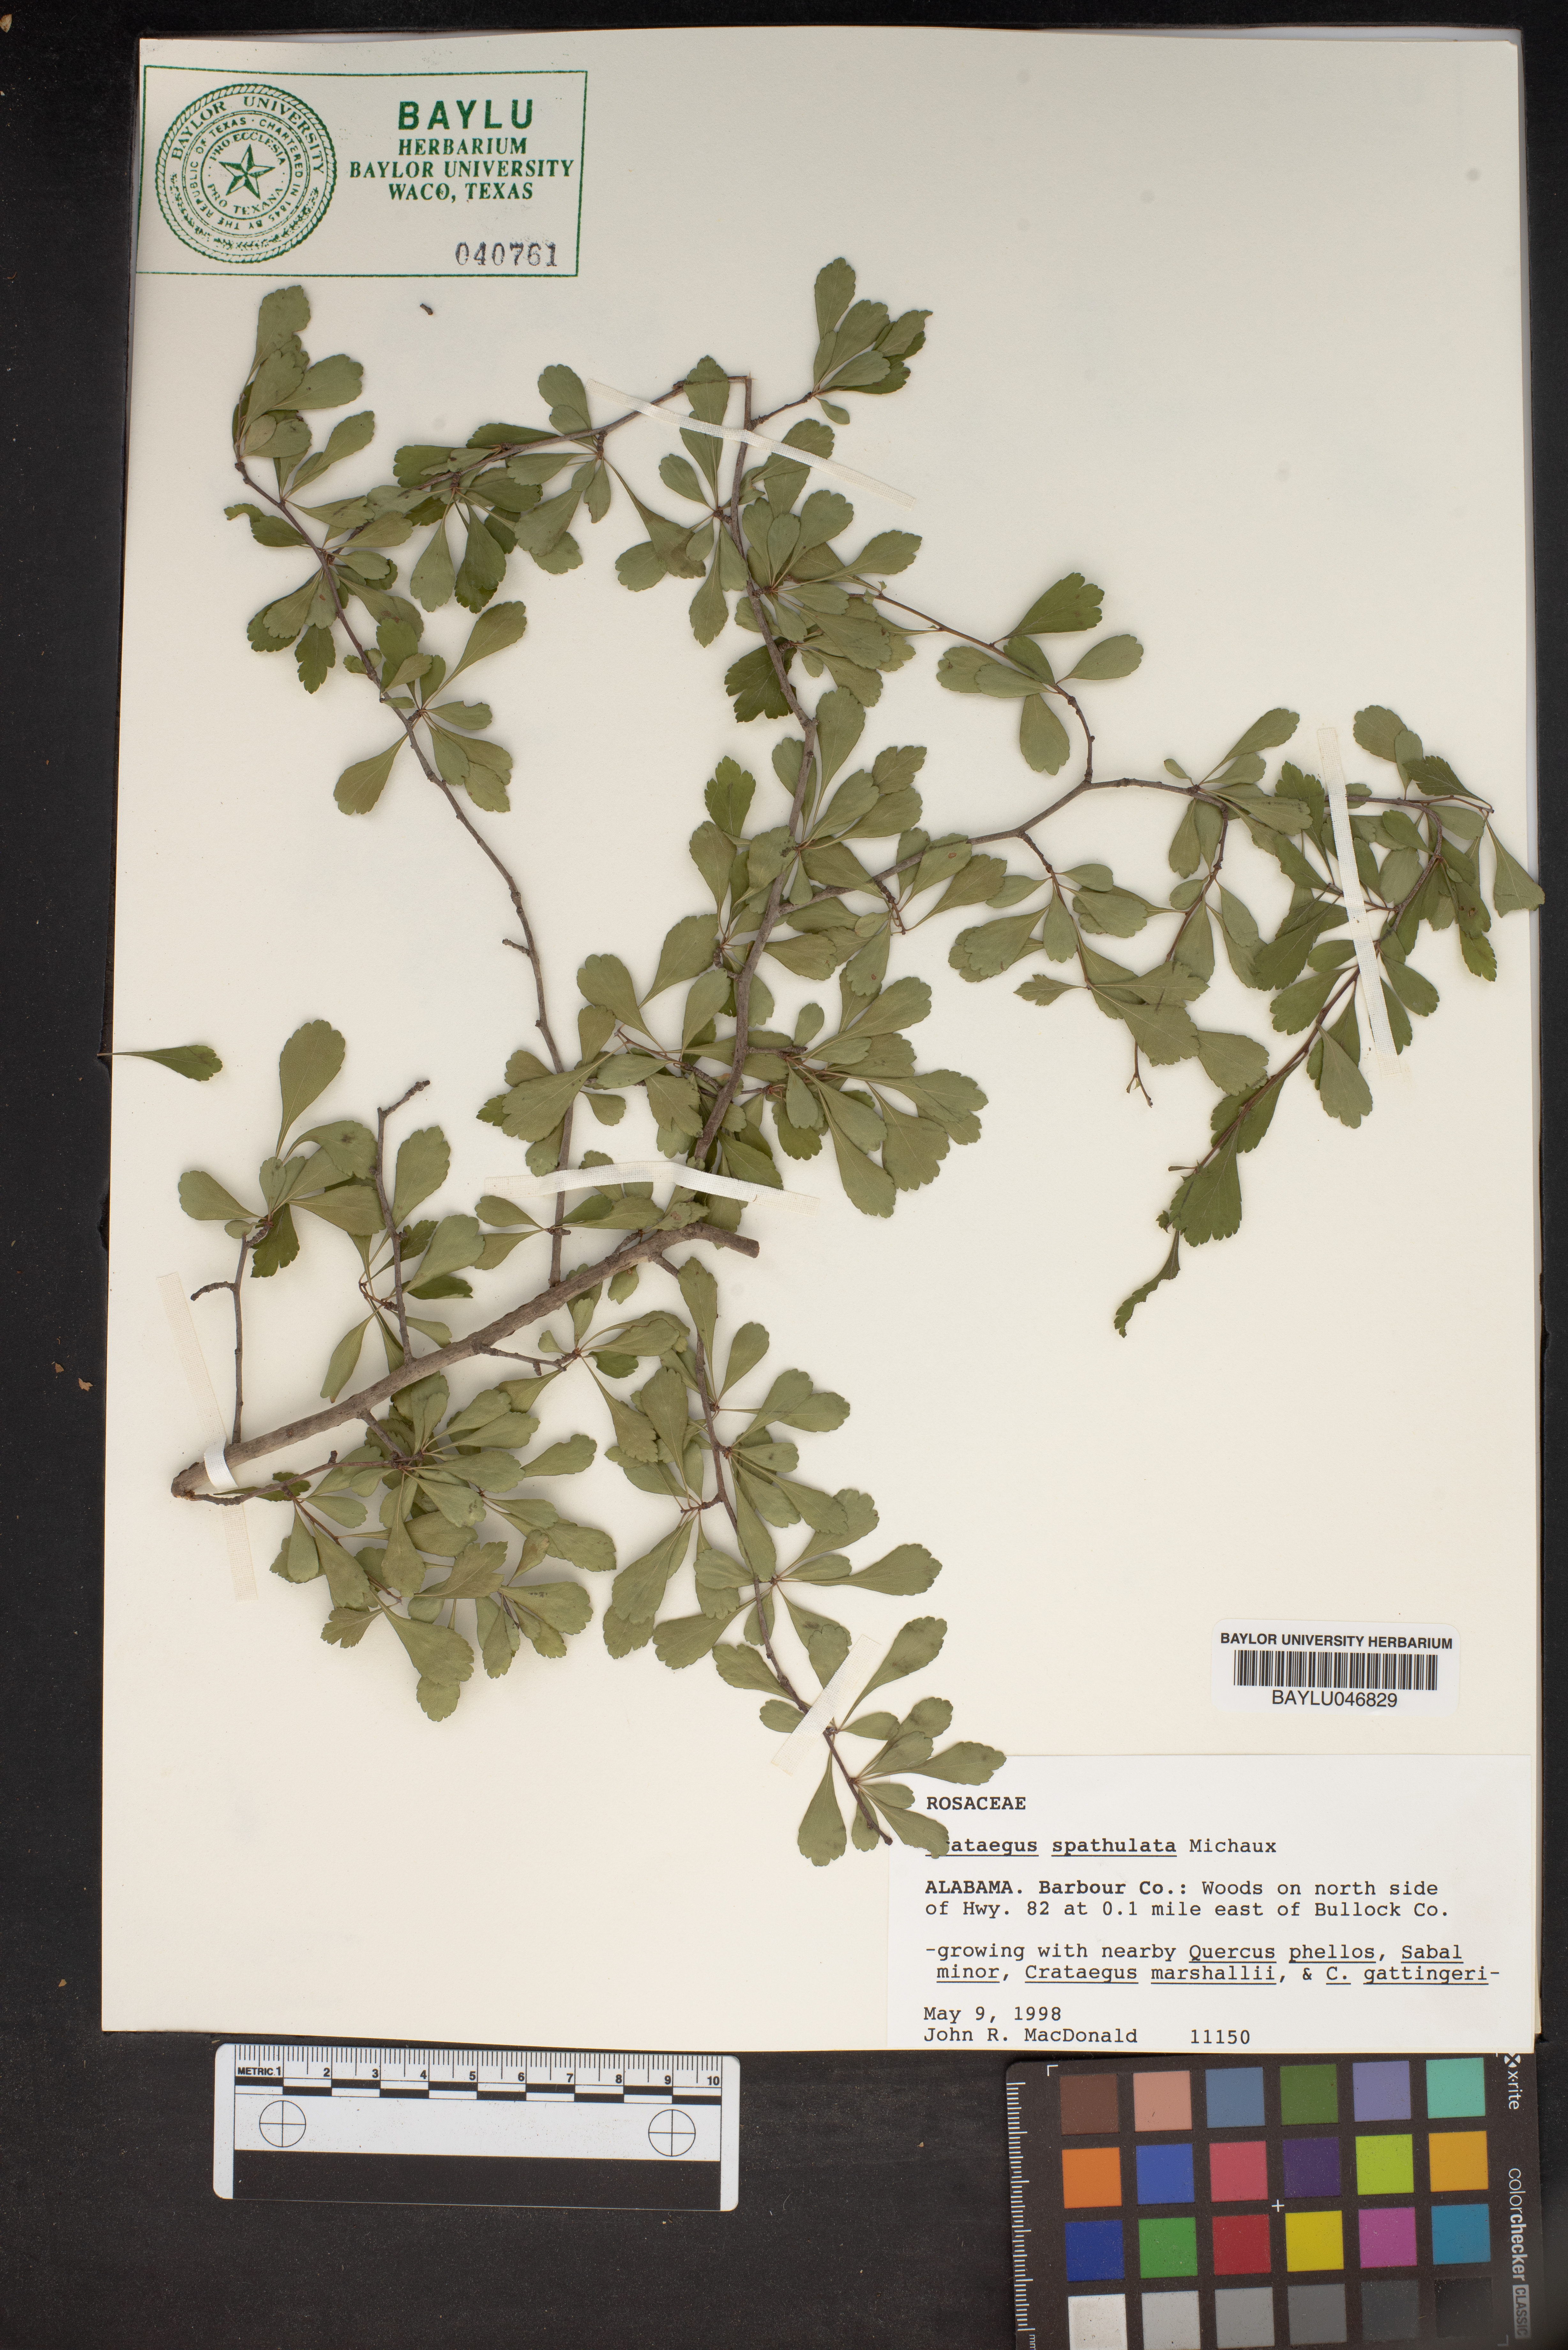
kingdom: Plantae
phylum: Tracheophyta
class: Magnoliopsida
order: Rosales
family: Rosaceae
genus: Crataegus
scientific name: Crataegus spathulata
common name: Littlehip hawthorn
